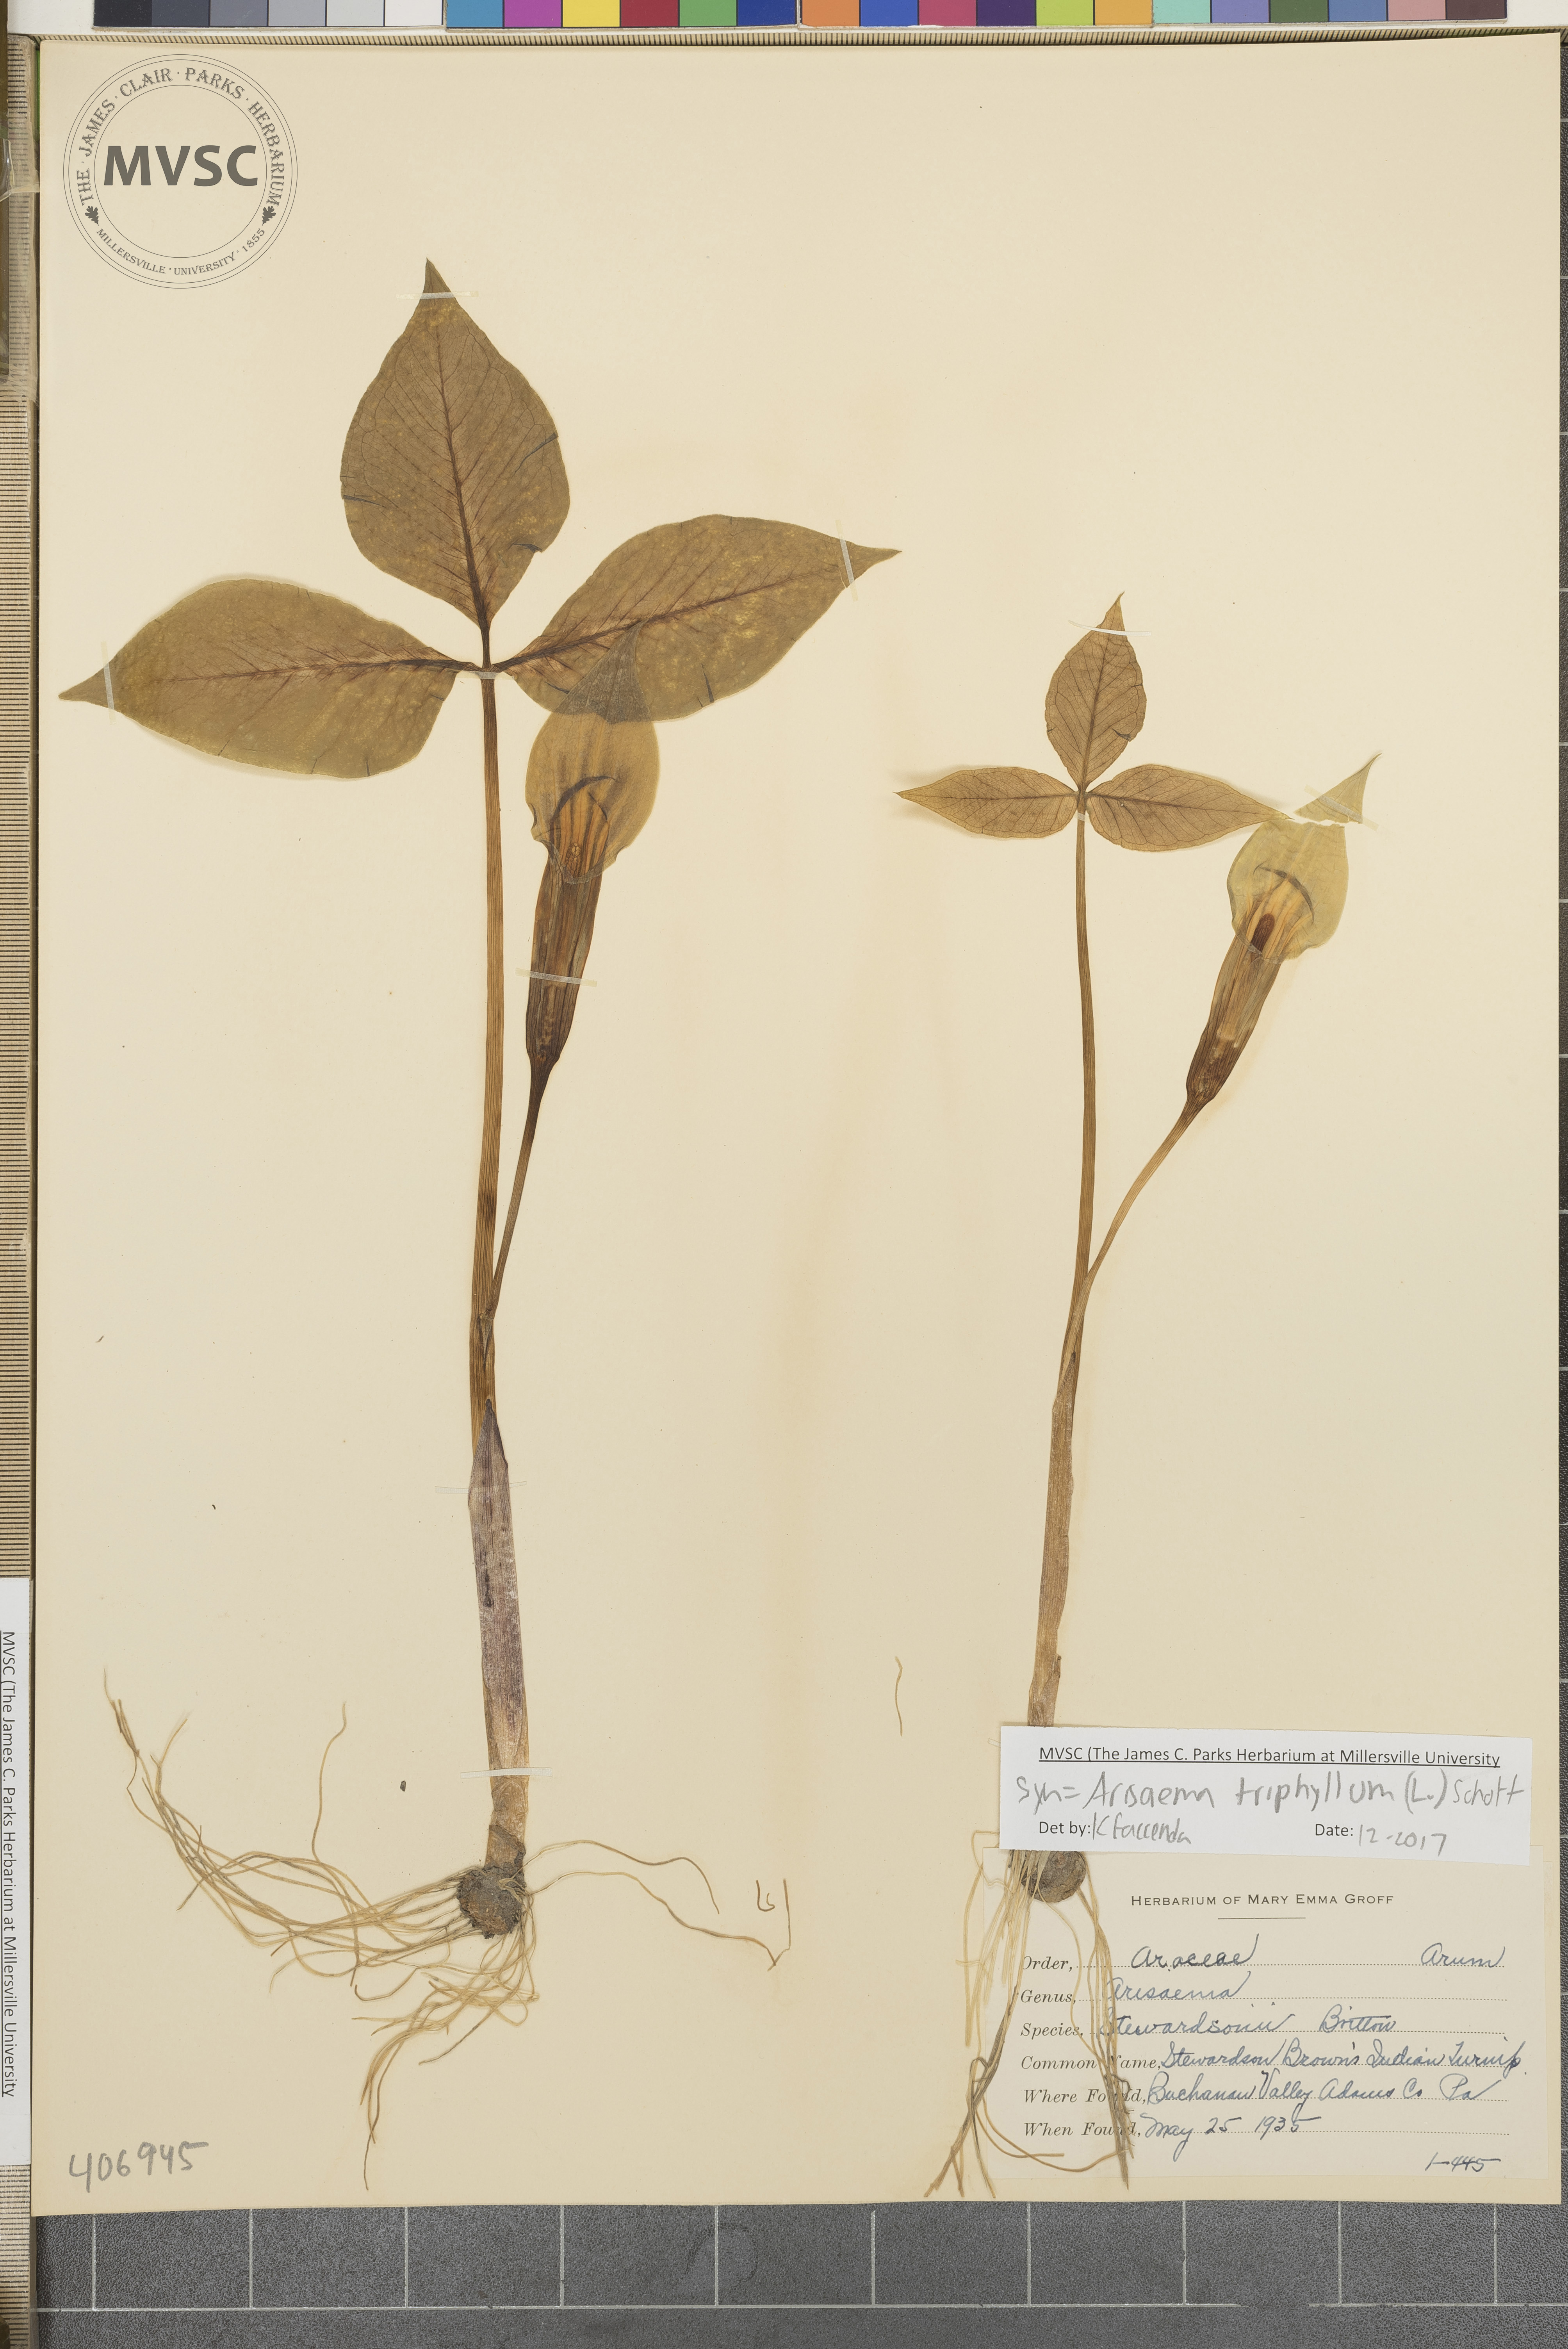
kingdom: Plantae
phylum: Tracheophyta
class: Liliopsida
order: Alismatales
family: Araceae
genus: Arisaema
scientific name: Arisaema triphyllum
